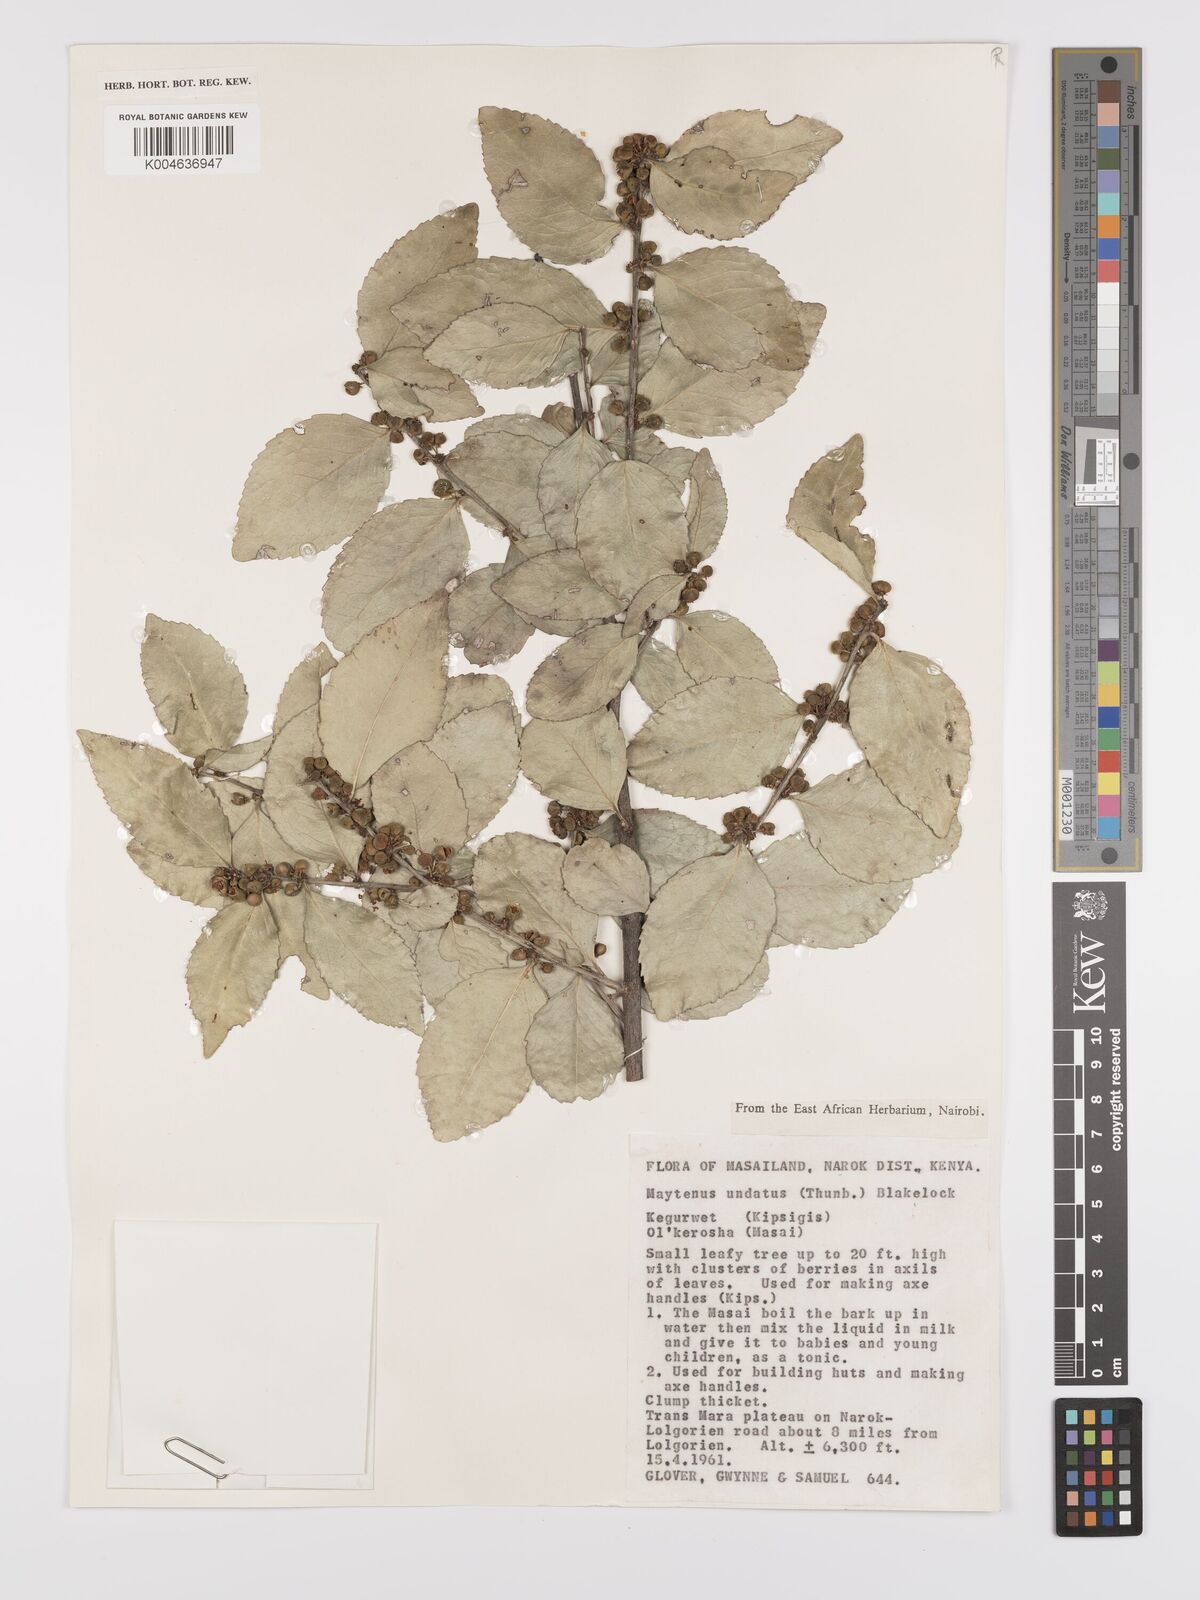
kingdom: Plantae
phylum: Tracheophyta
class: Magnoliopsida
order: Celastrales
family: Celastraceae
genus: Gymnosporia
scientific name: Gymnosporia undata
